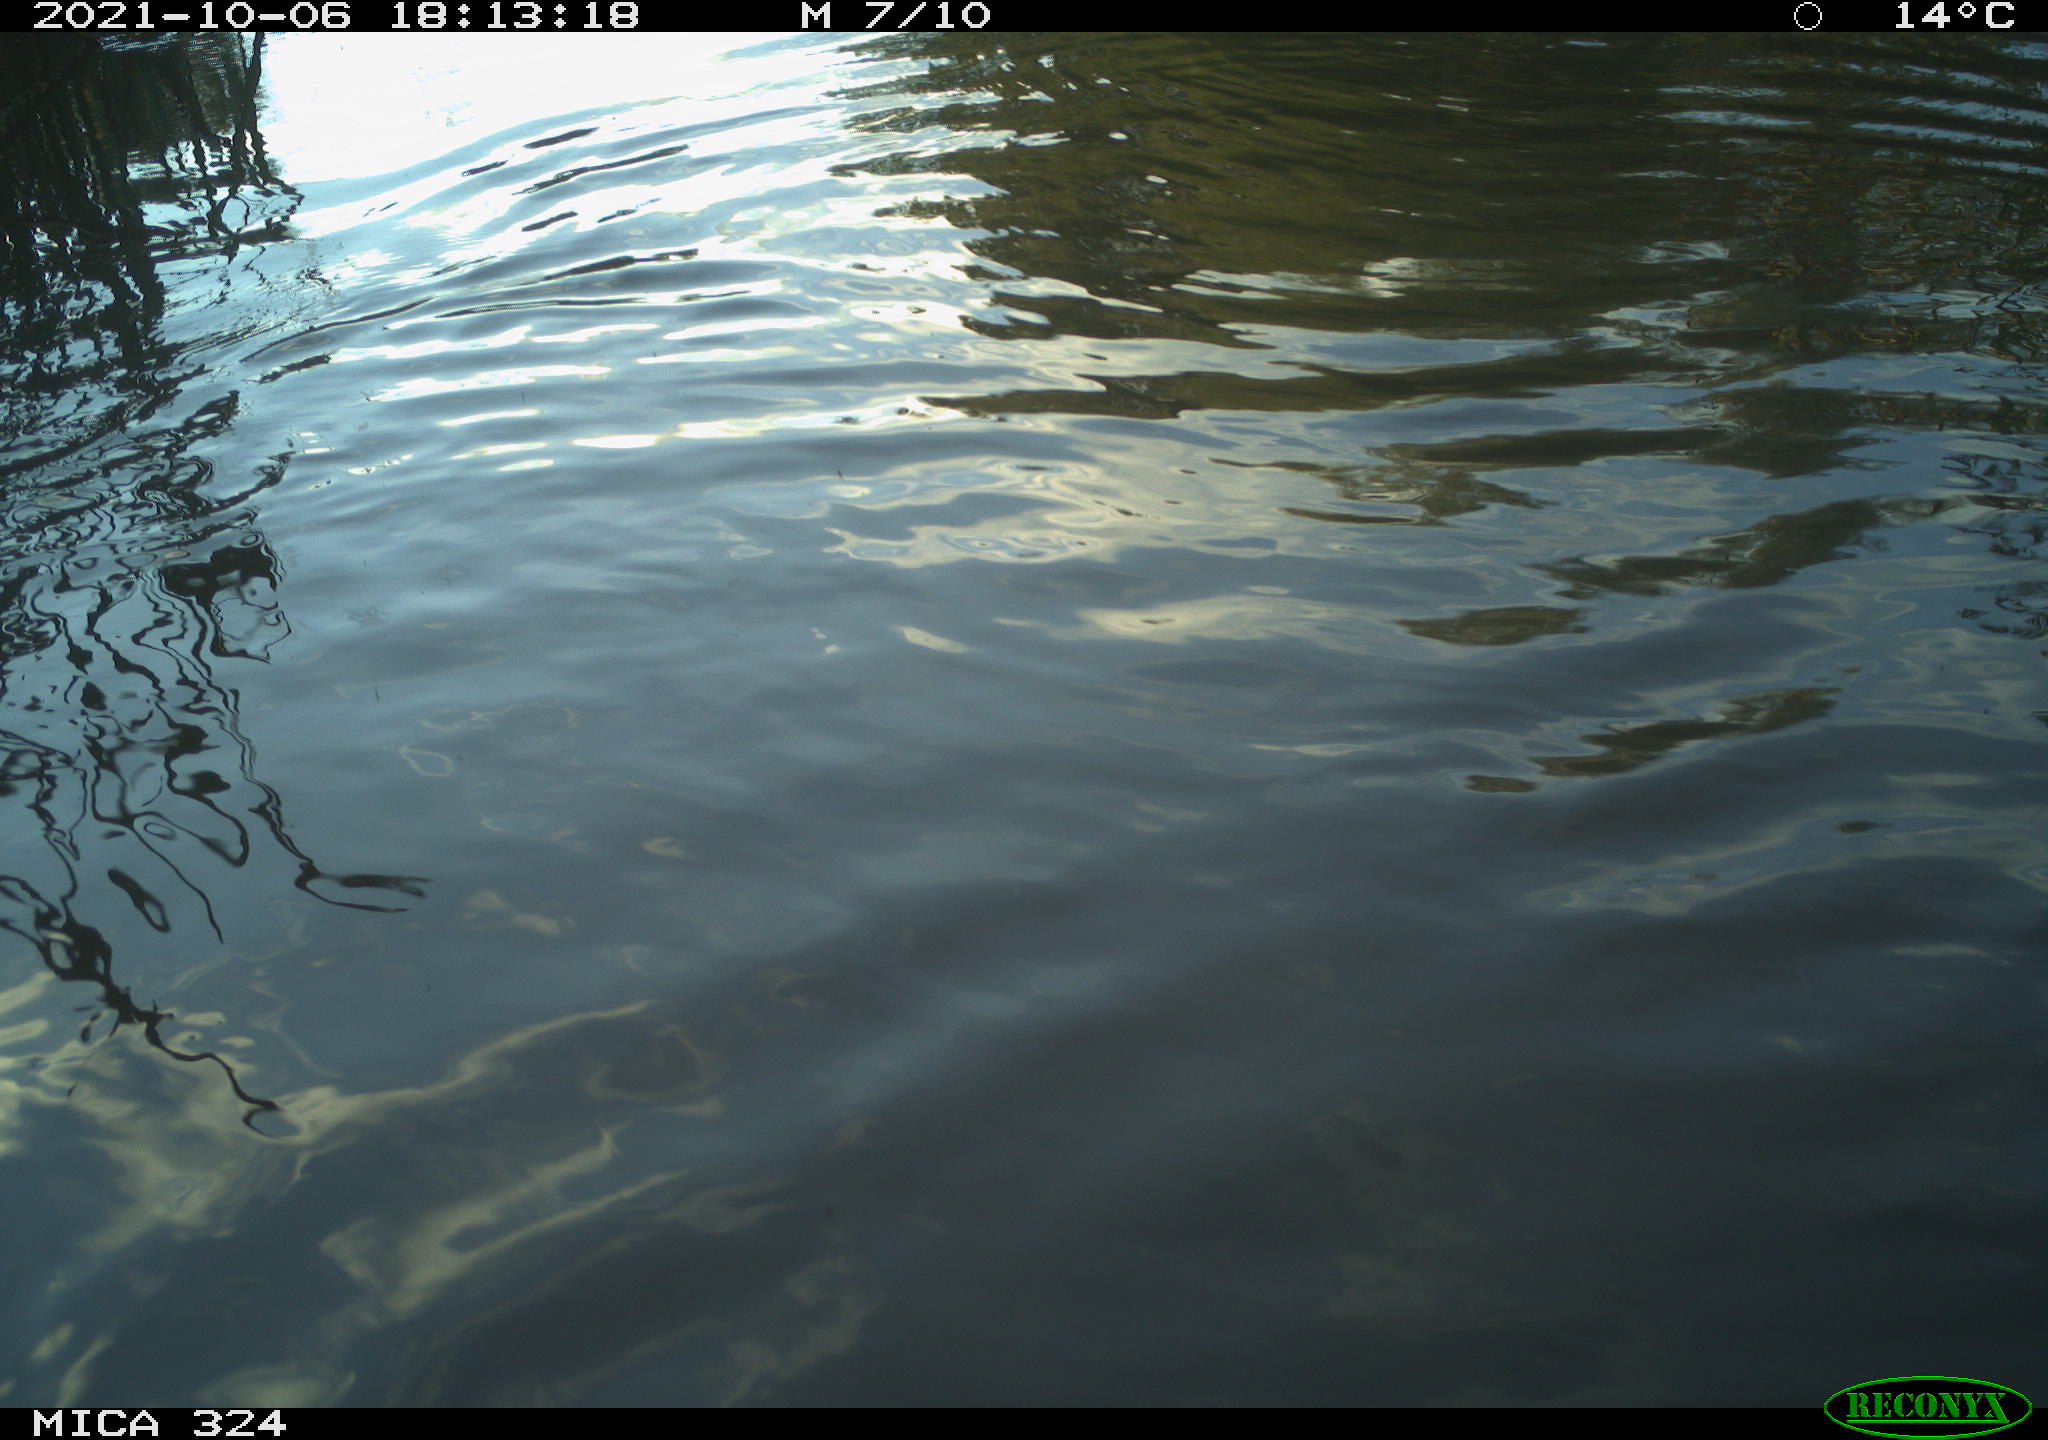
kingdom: Animalia
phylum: Chordata
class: Mammalia
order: Rodentia
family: Cricetidae
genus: Ondatra
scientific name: Ondatra zibethicus
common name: Muskrat
